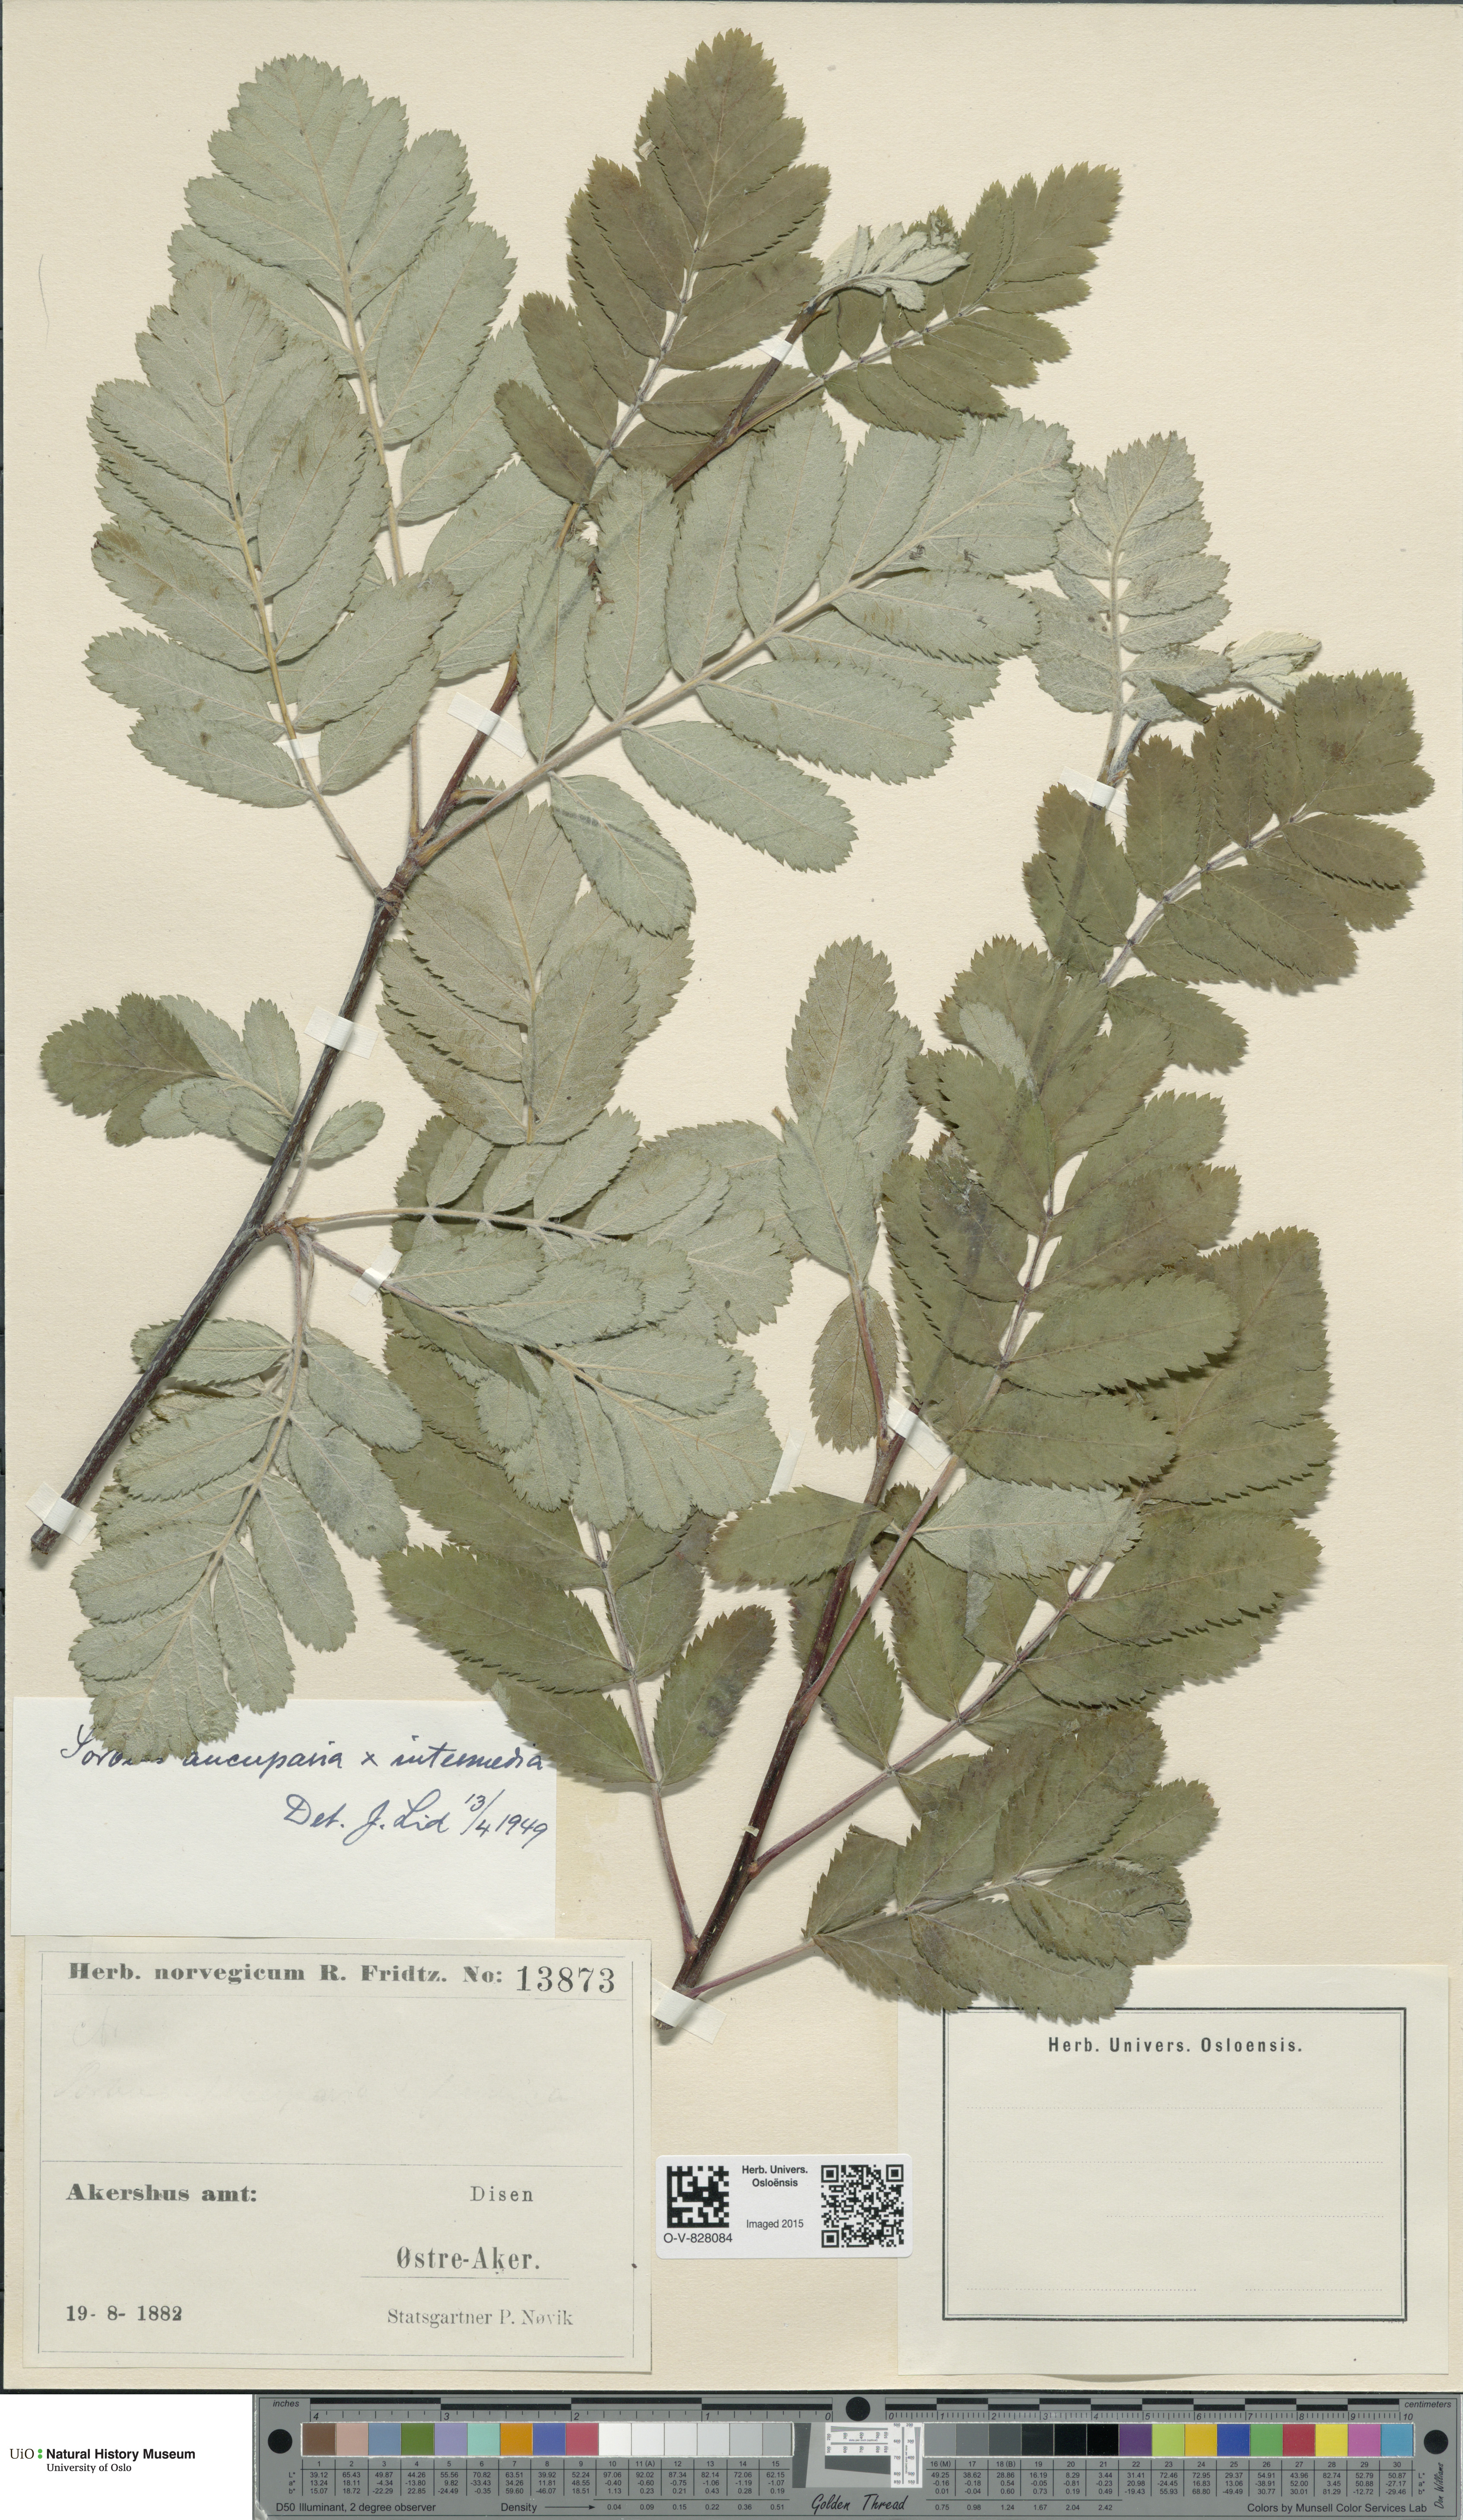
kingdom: Plantae
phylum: Tracheophyta
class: Magnoliopsida
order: Rosales
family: Rosaceae
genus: Scandosorbus
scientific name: Scandosorbus
